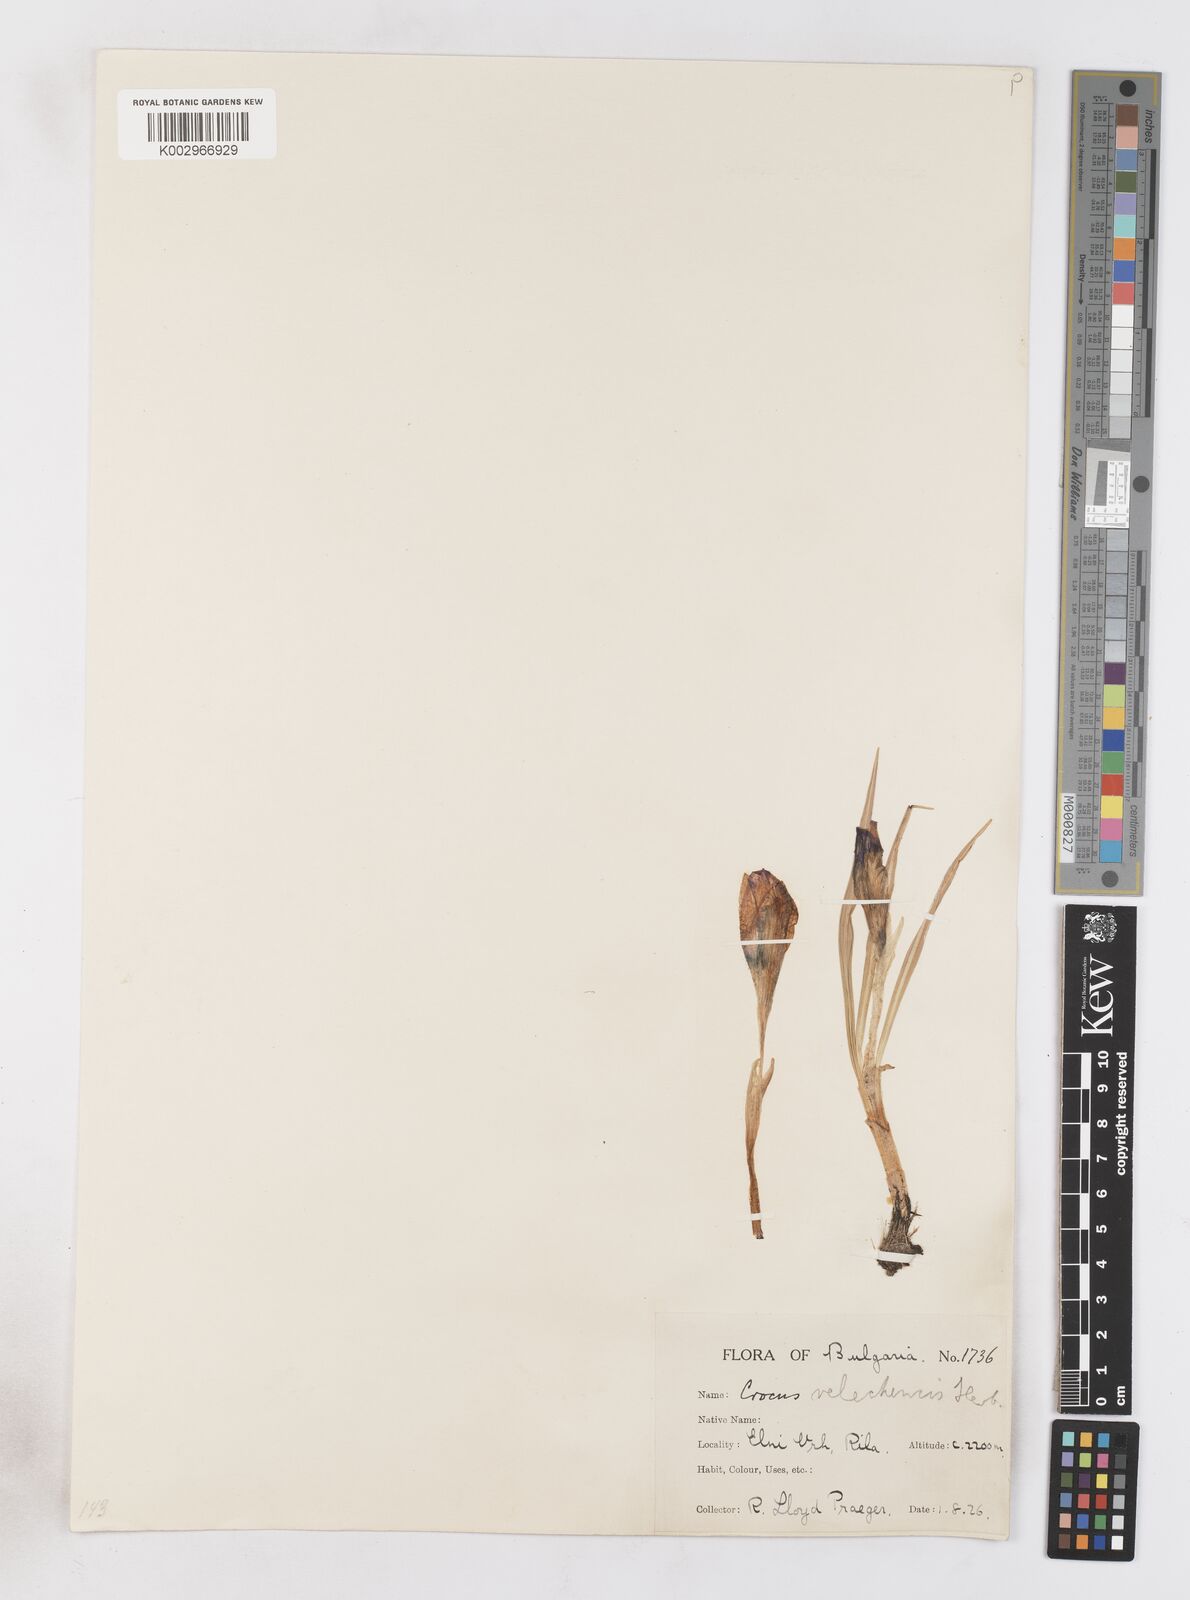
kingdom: Plantae
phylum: Tracheophyta
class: Liliopsida
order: Asparagales
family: Iridaceae
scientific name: Iridaceae
